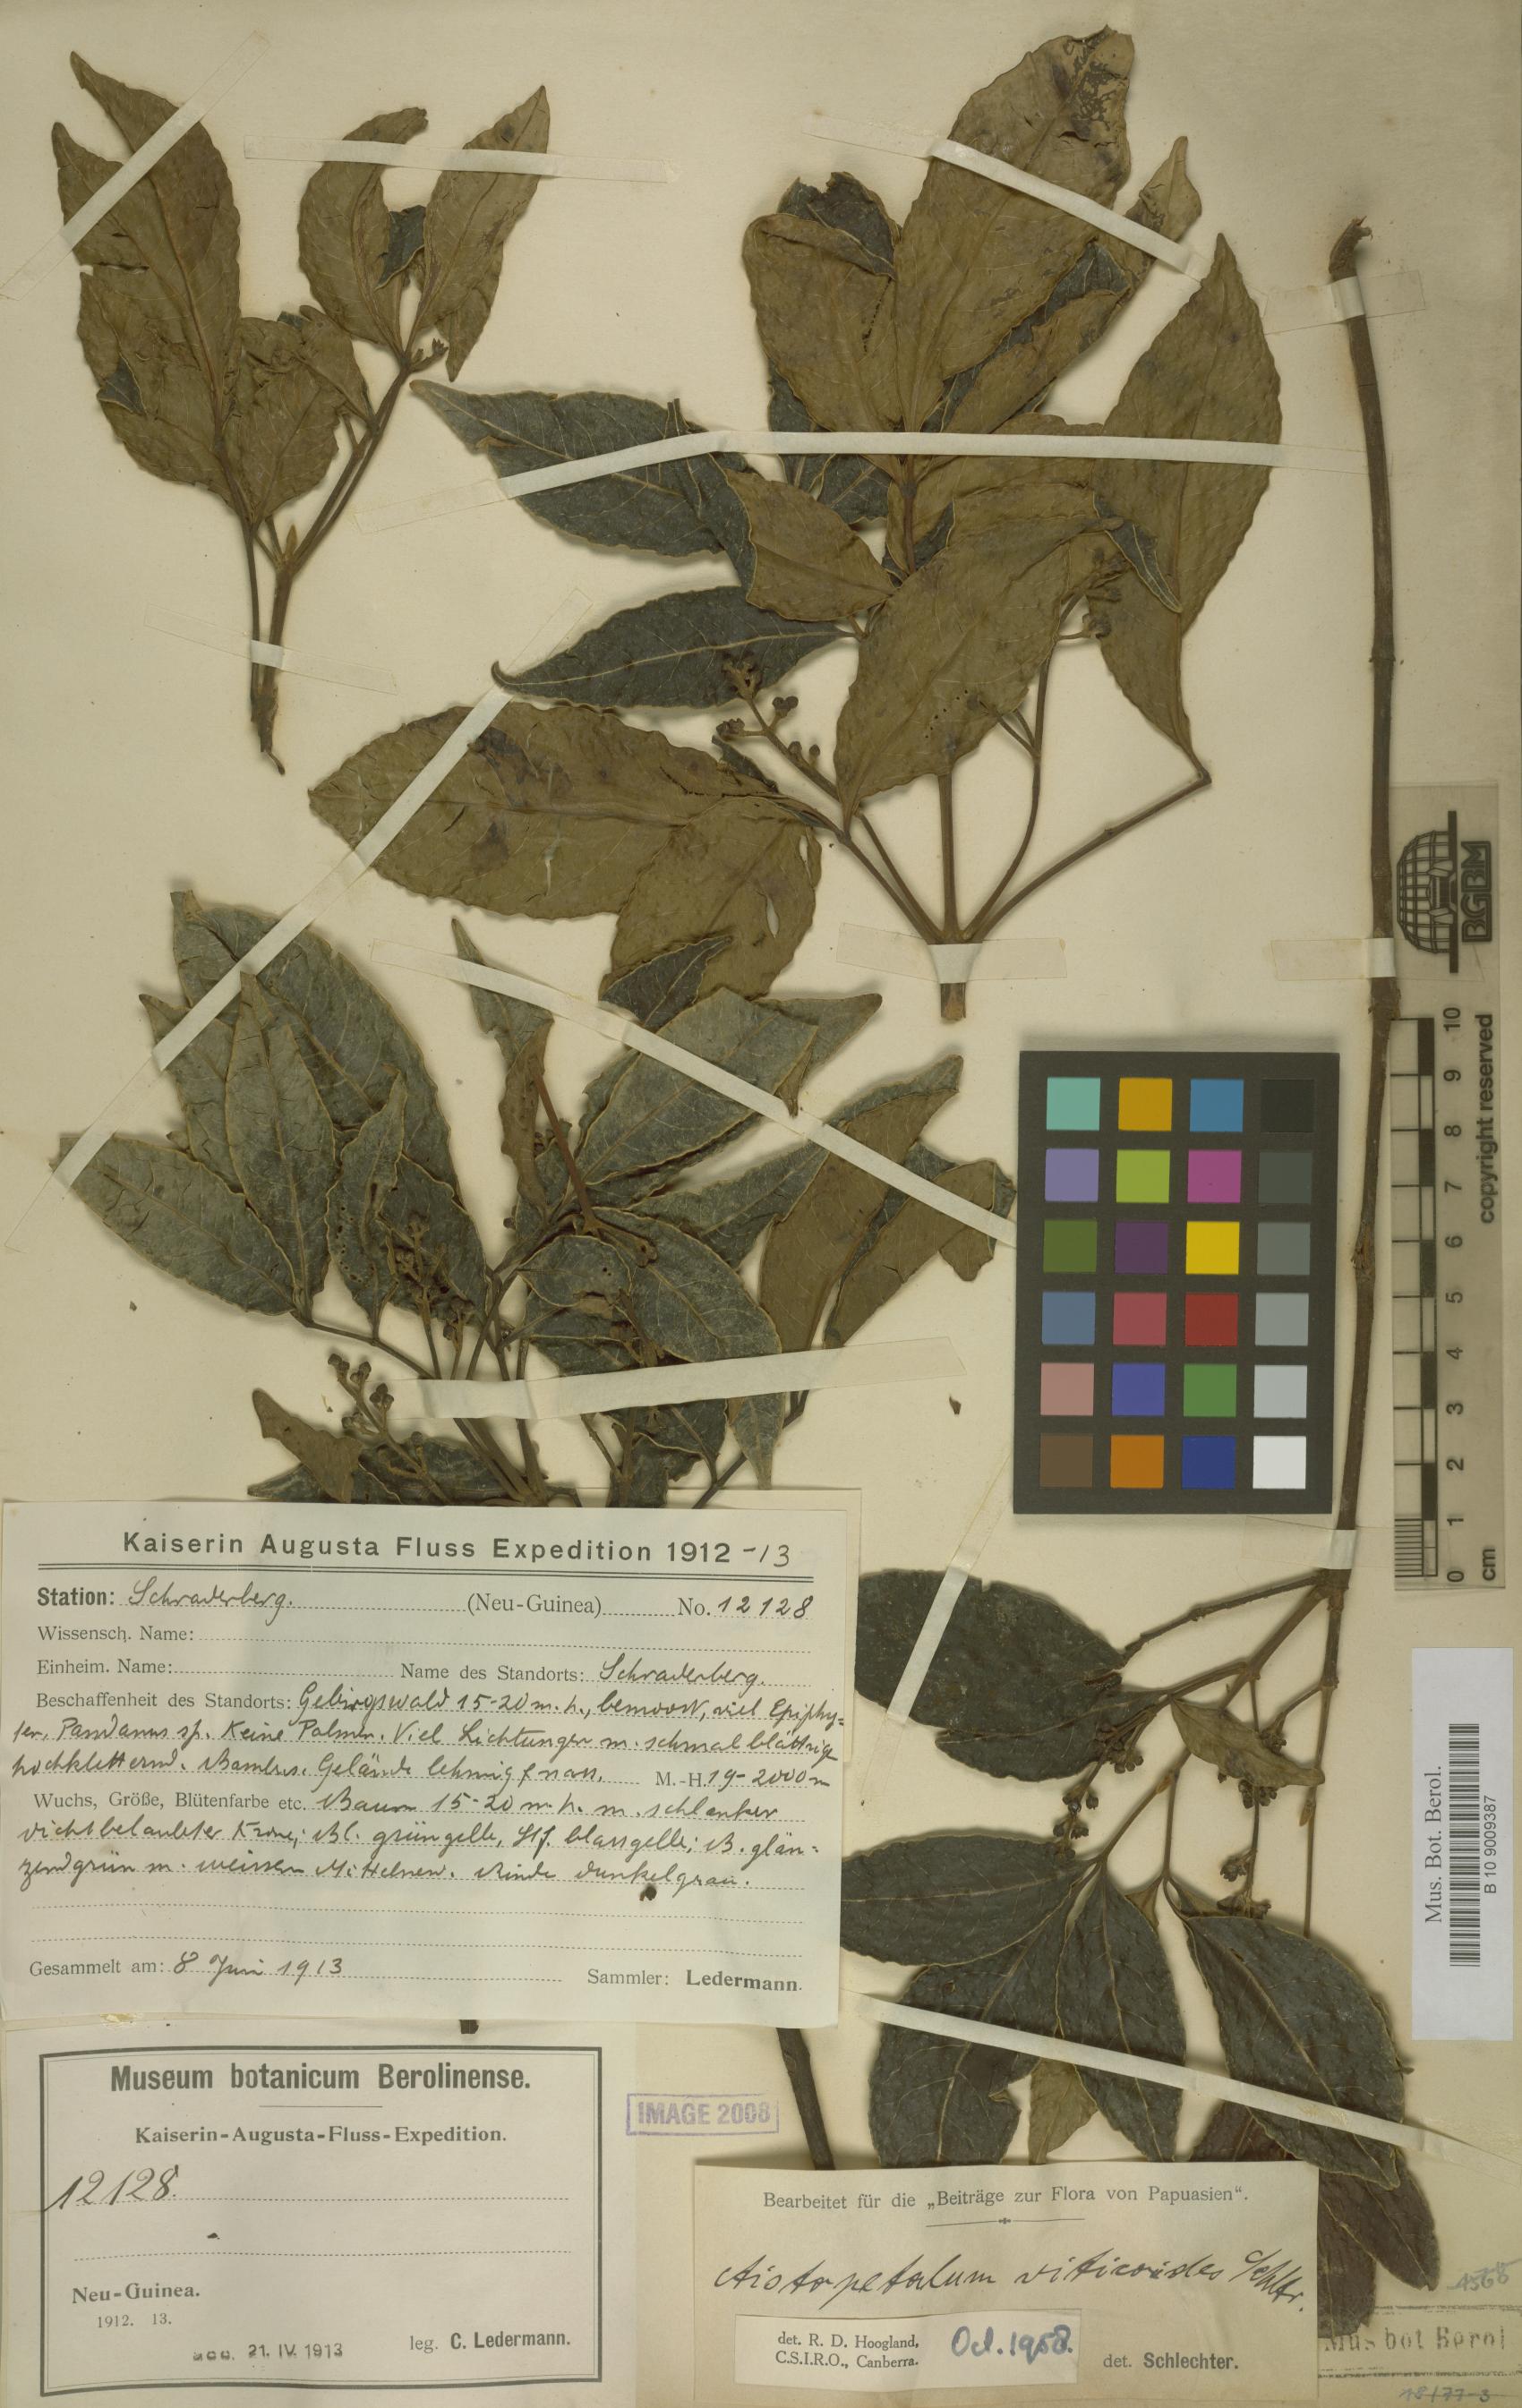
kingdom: Plantae
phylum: Tracheophyta
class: Magnoliopsida
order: Oxalidales
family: Cunoniaceae
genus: Aistopetalum
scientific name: Aistopetalum viticoides
